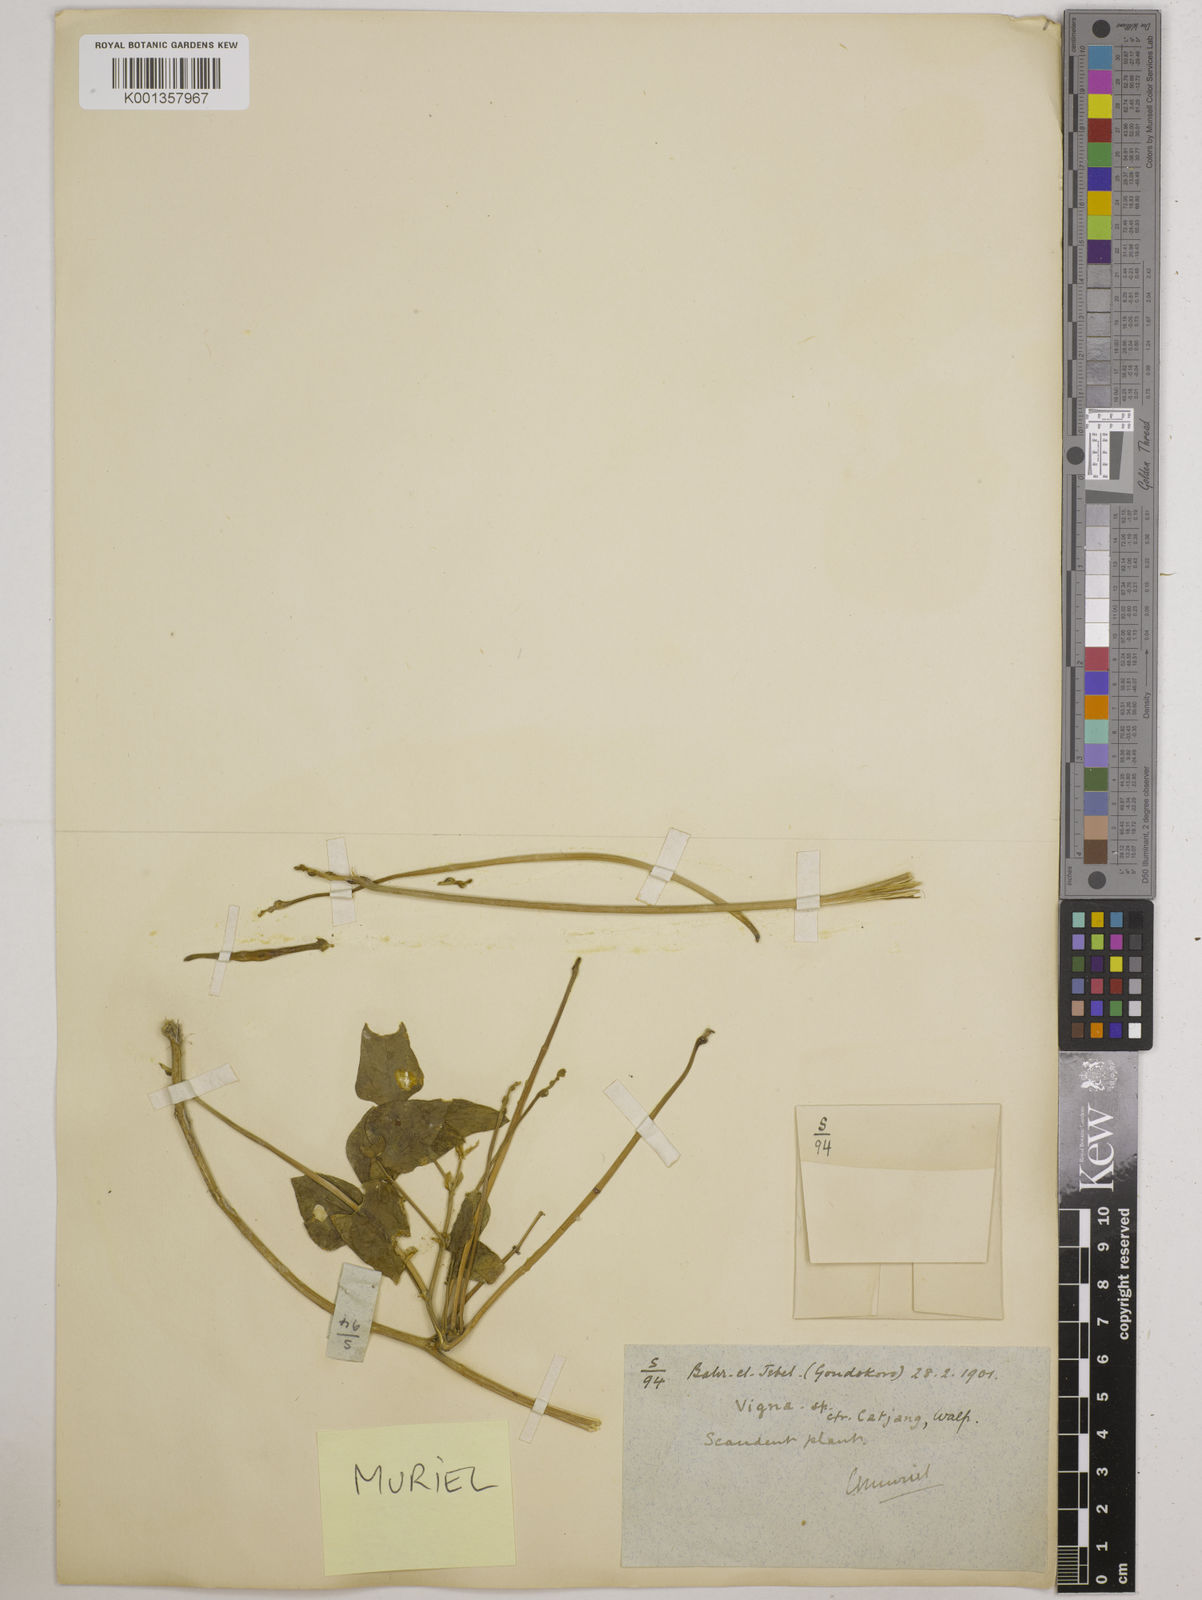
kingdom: Plantae
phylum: Tracheophyta
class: Magnoliopsida
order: Fabales
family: Fabaceae
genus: Vigna
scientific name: Vigna unguiculata
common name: Cowpea
